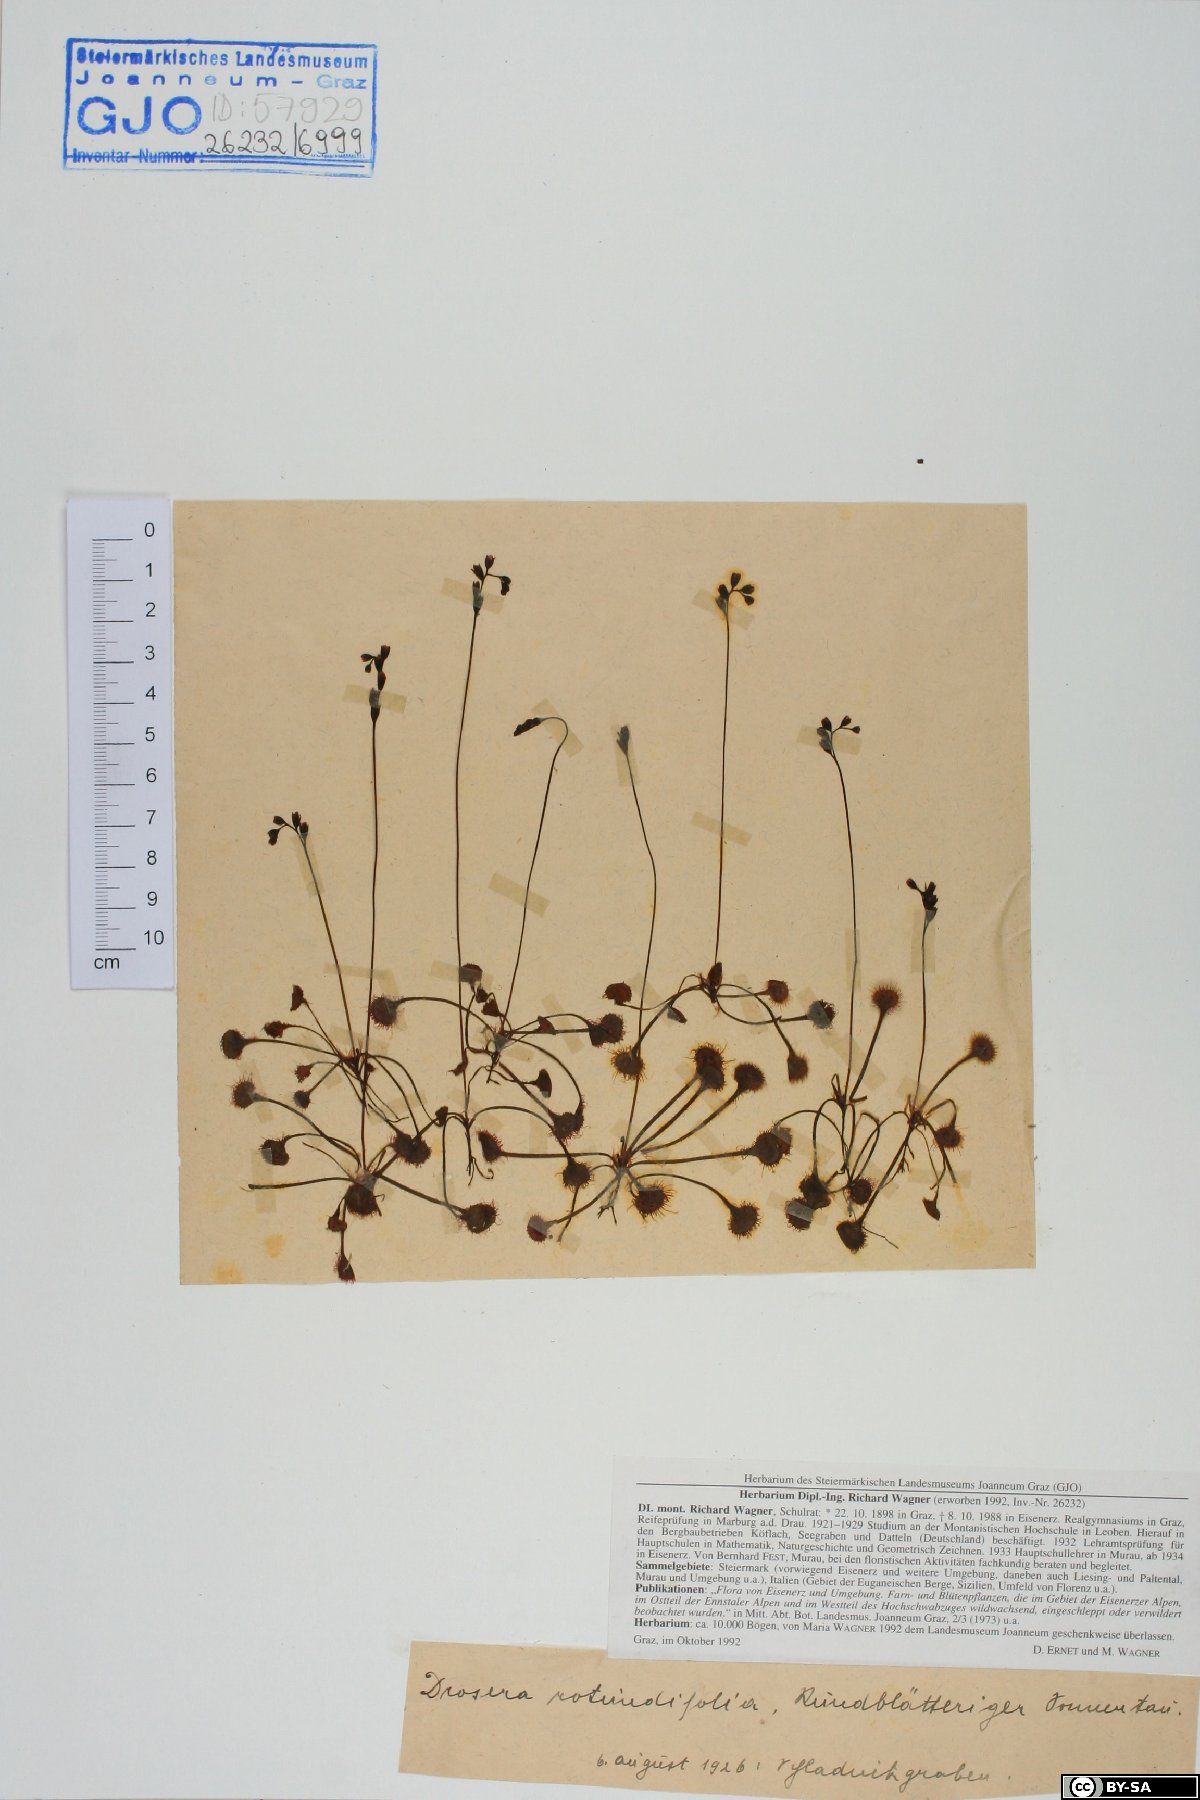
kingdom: Plantae
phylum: Tracheophyta
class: Magnoliopsida
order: Caryophyllales
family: Droseraceae
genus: Drosera
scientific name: Drosera rotundifolia
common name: Round-leaved sundew
